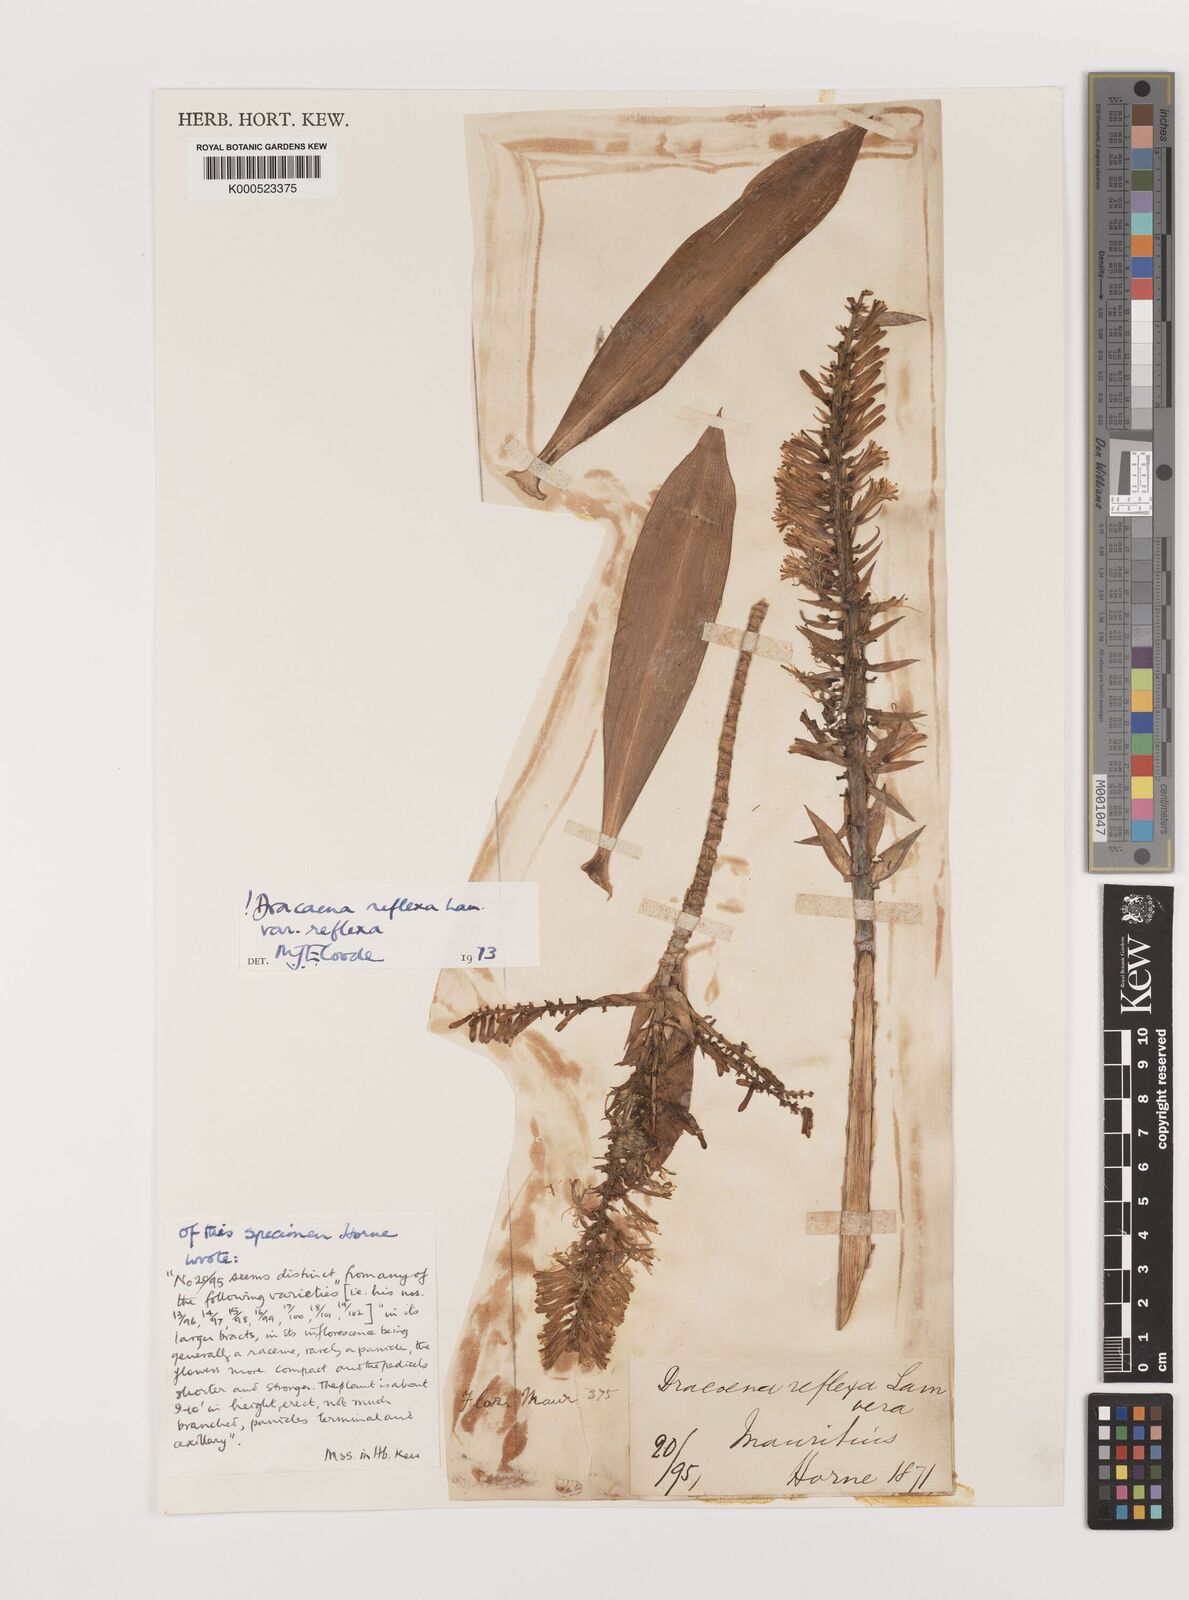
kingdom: Plantae
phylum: Tracheophyta
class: Liliopsida
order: Asparagales
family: Asparagaceae
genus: Dracaena
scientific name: Dracaena reflexa
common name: Song-of-india
